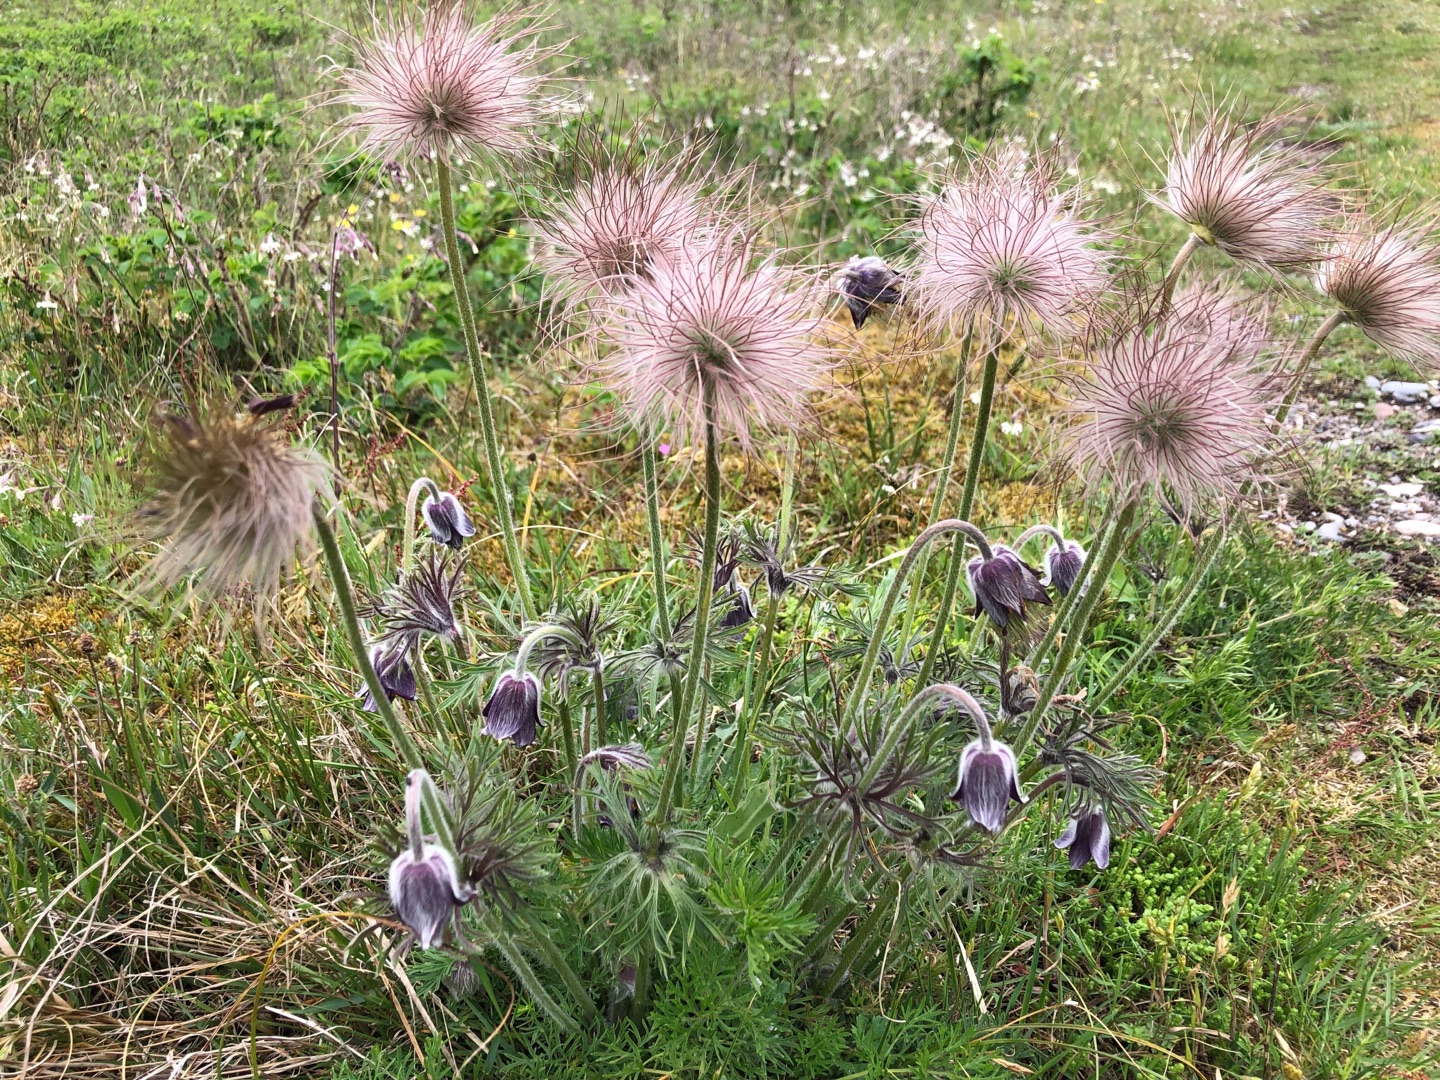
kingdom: Plantae
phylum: Tracheophyta
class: Magnoliopsida
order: Ranunculales
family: Ranunculaceae
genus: Pulsatilla
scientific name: Pulsatilla pratensis
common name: Nikkende kobjælde
